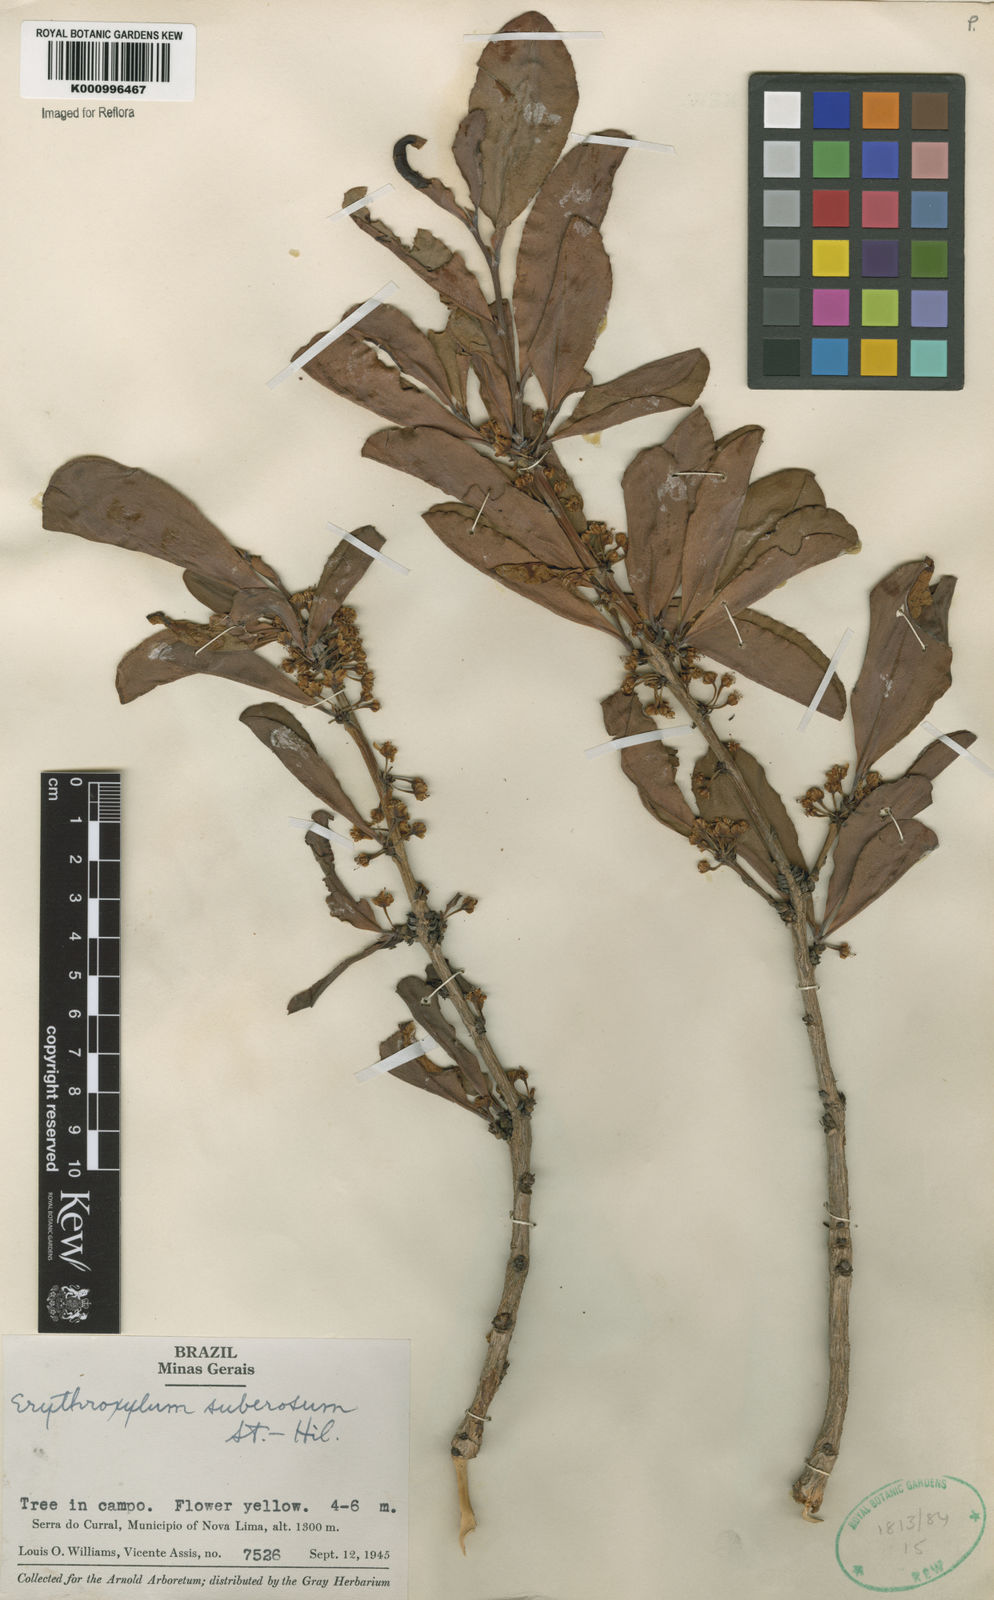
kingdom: Plantae
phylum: Tracheophyta
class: Magnoliopsida
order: Malpighiales
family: Erythroxylaceae
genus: Erythroxylum
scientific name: Erythroxylum suberosum
